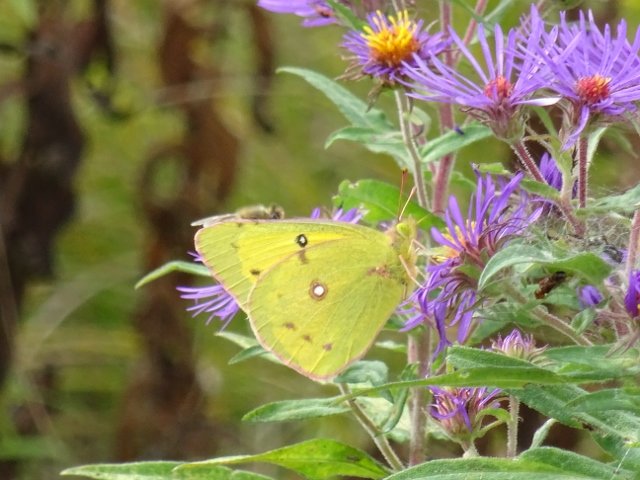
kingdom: Animalia
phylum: Arthropoda
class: Insecta
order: Lepidoptera
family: Pieridae
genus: Colias
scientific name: Colias philodice
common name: Clouded Sulphur
